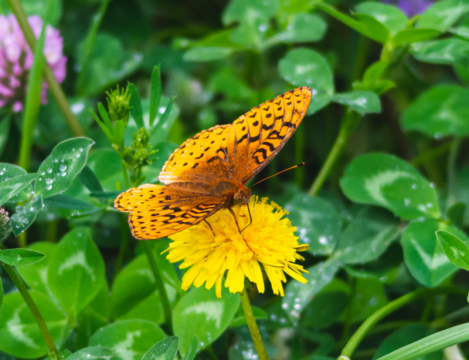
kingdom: Animalia
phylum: Arthropoda
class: Insecta
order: Lepidoptera
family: Nymphalidae
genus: Speyeria
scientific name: Speyeria cybele
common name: Great Spangled Fritillary
